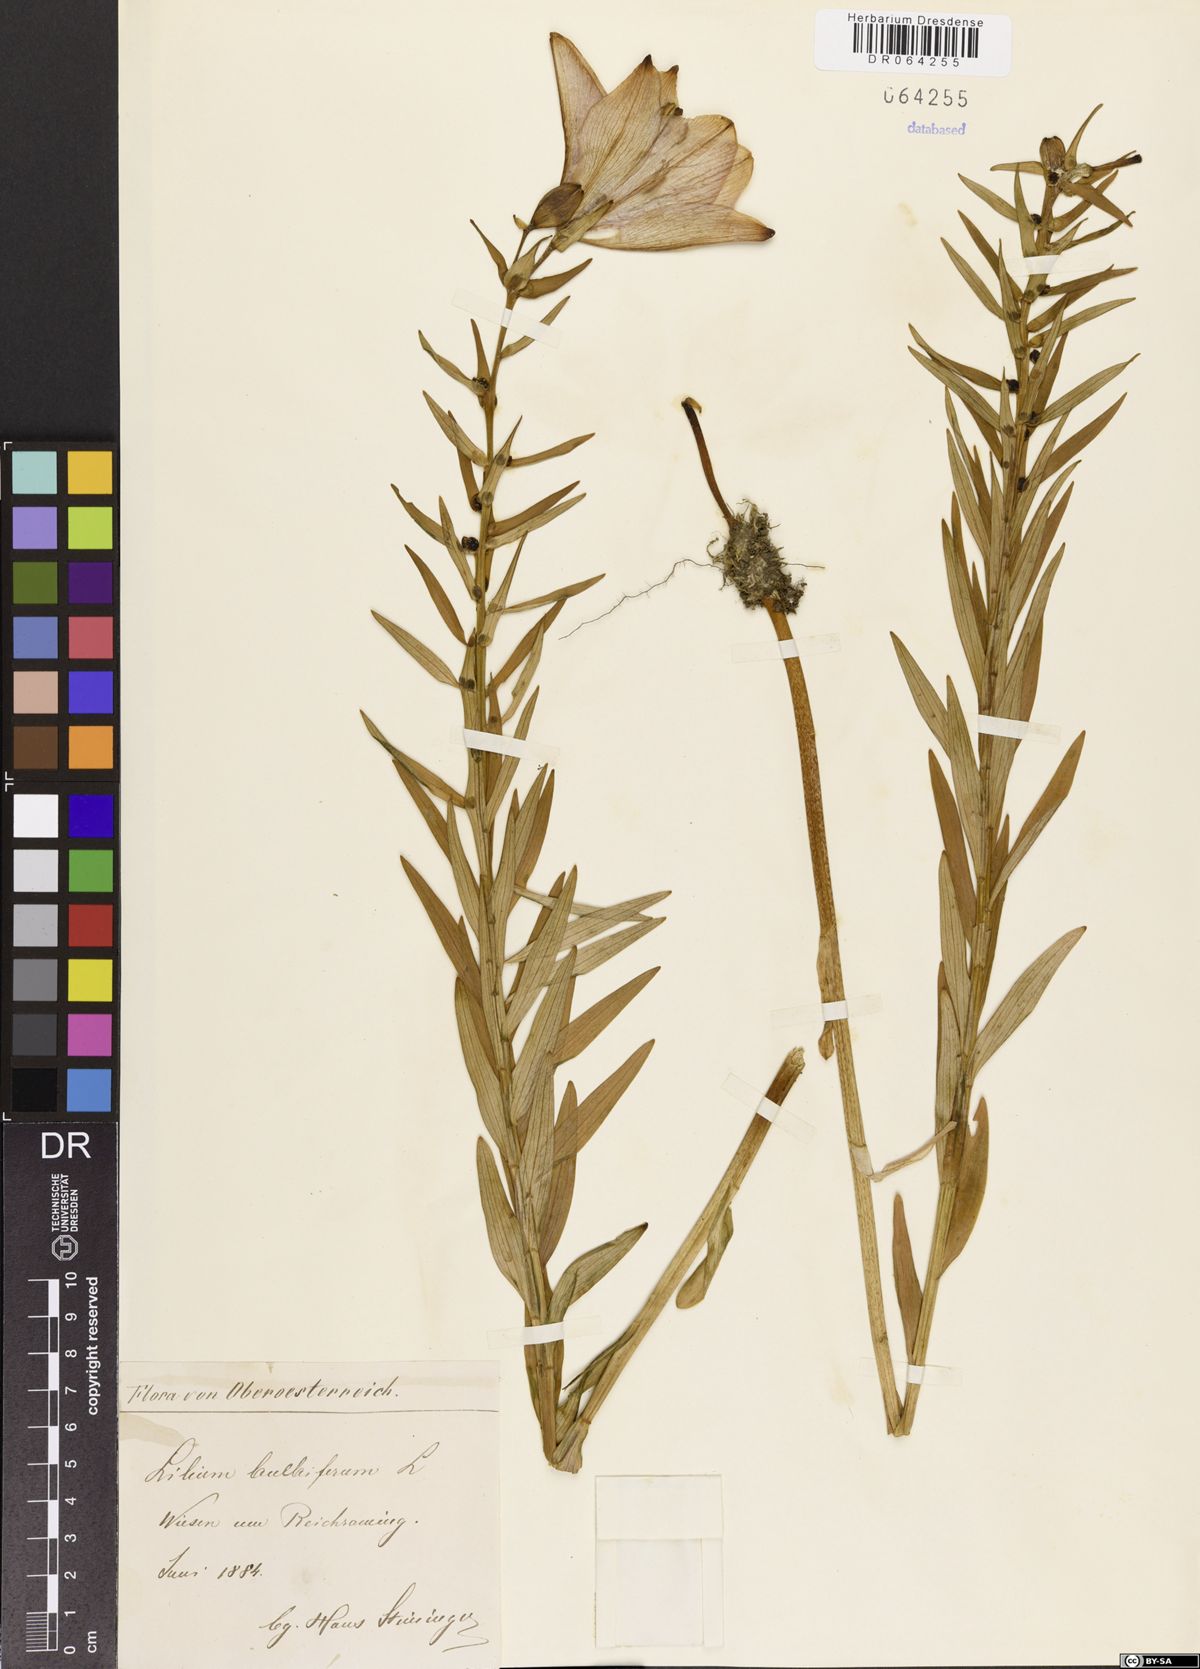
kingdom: Plantae
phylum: Tracheophyta
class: Liliopsida
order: Liliales
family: Liliaceae
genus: Lilium
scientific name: Lilium bulbiferum
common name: Orange lily
